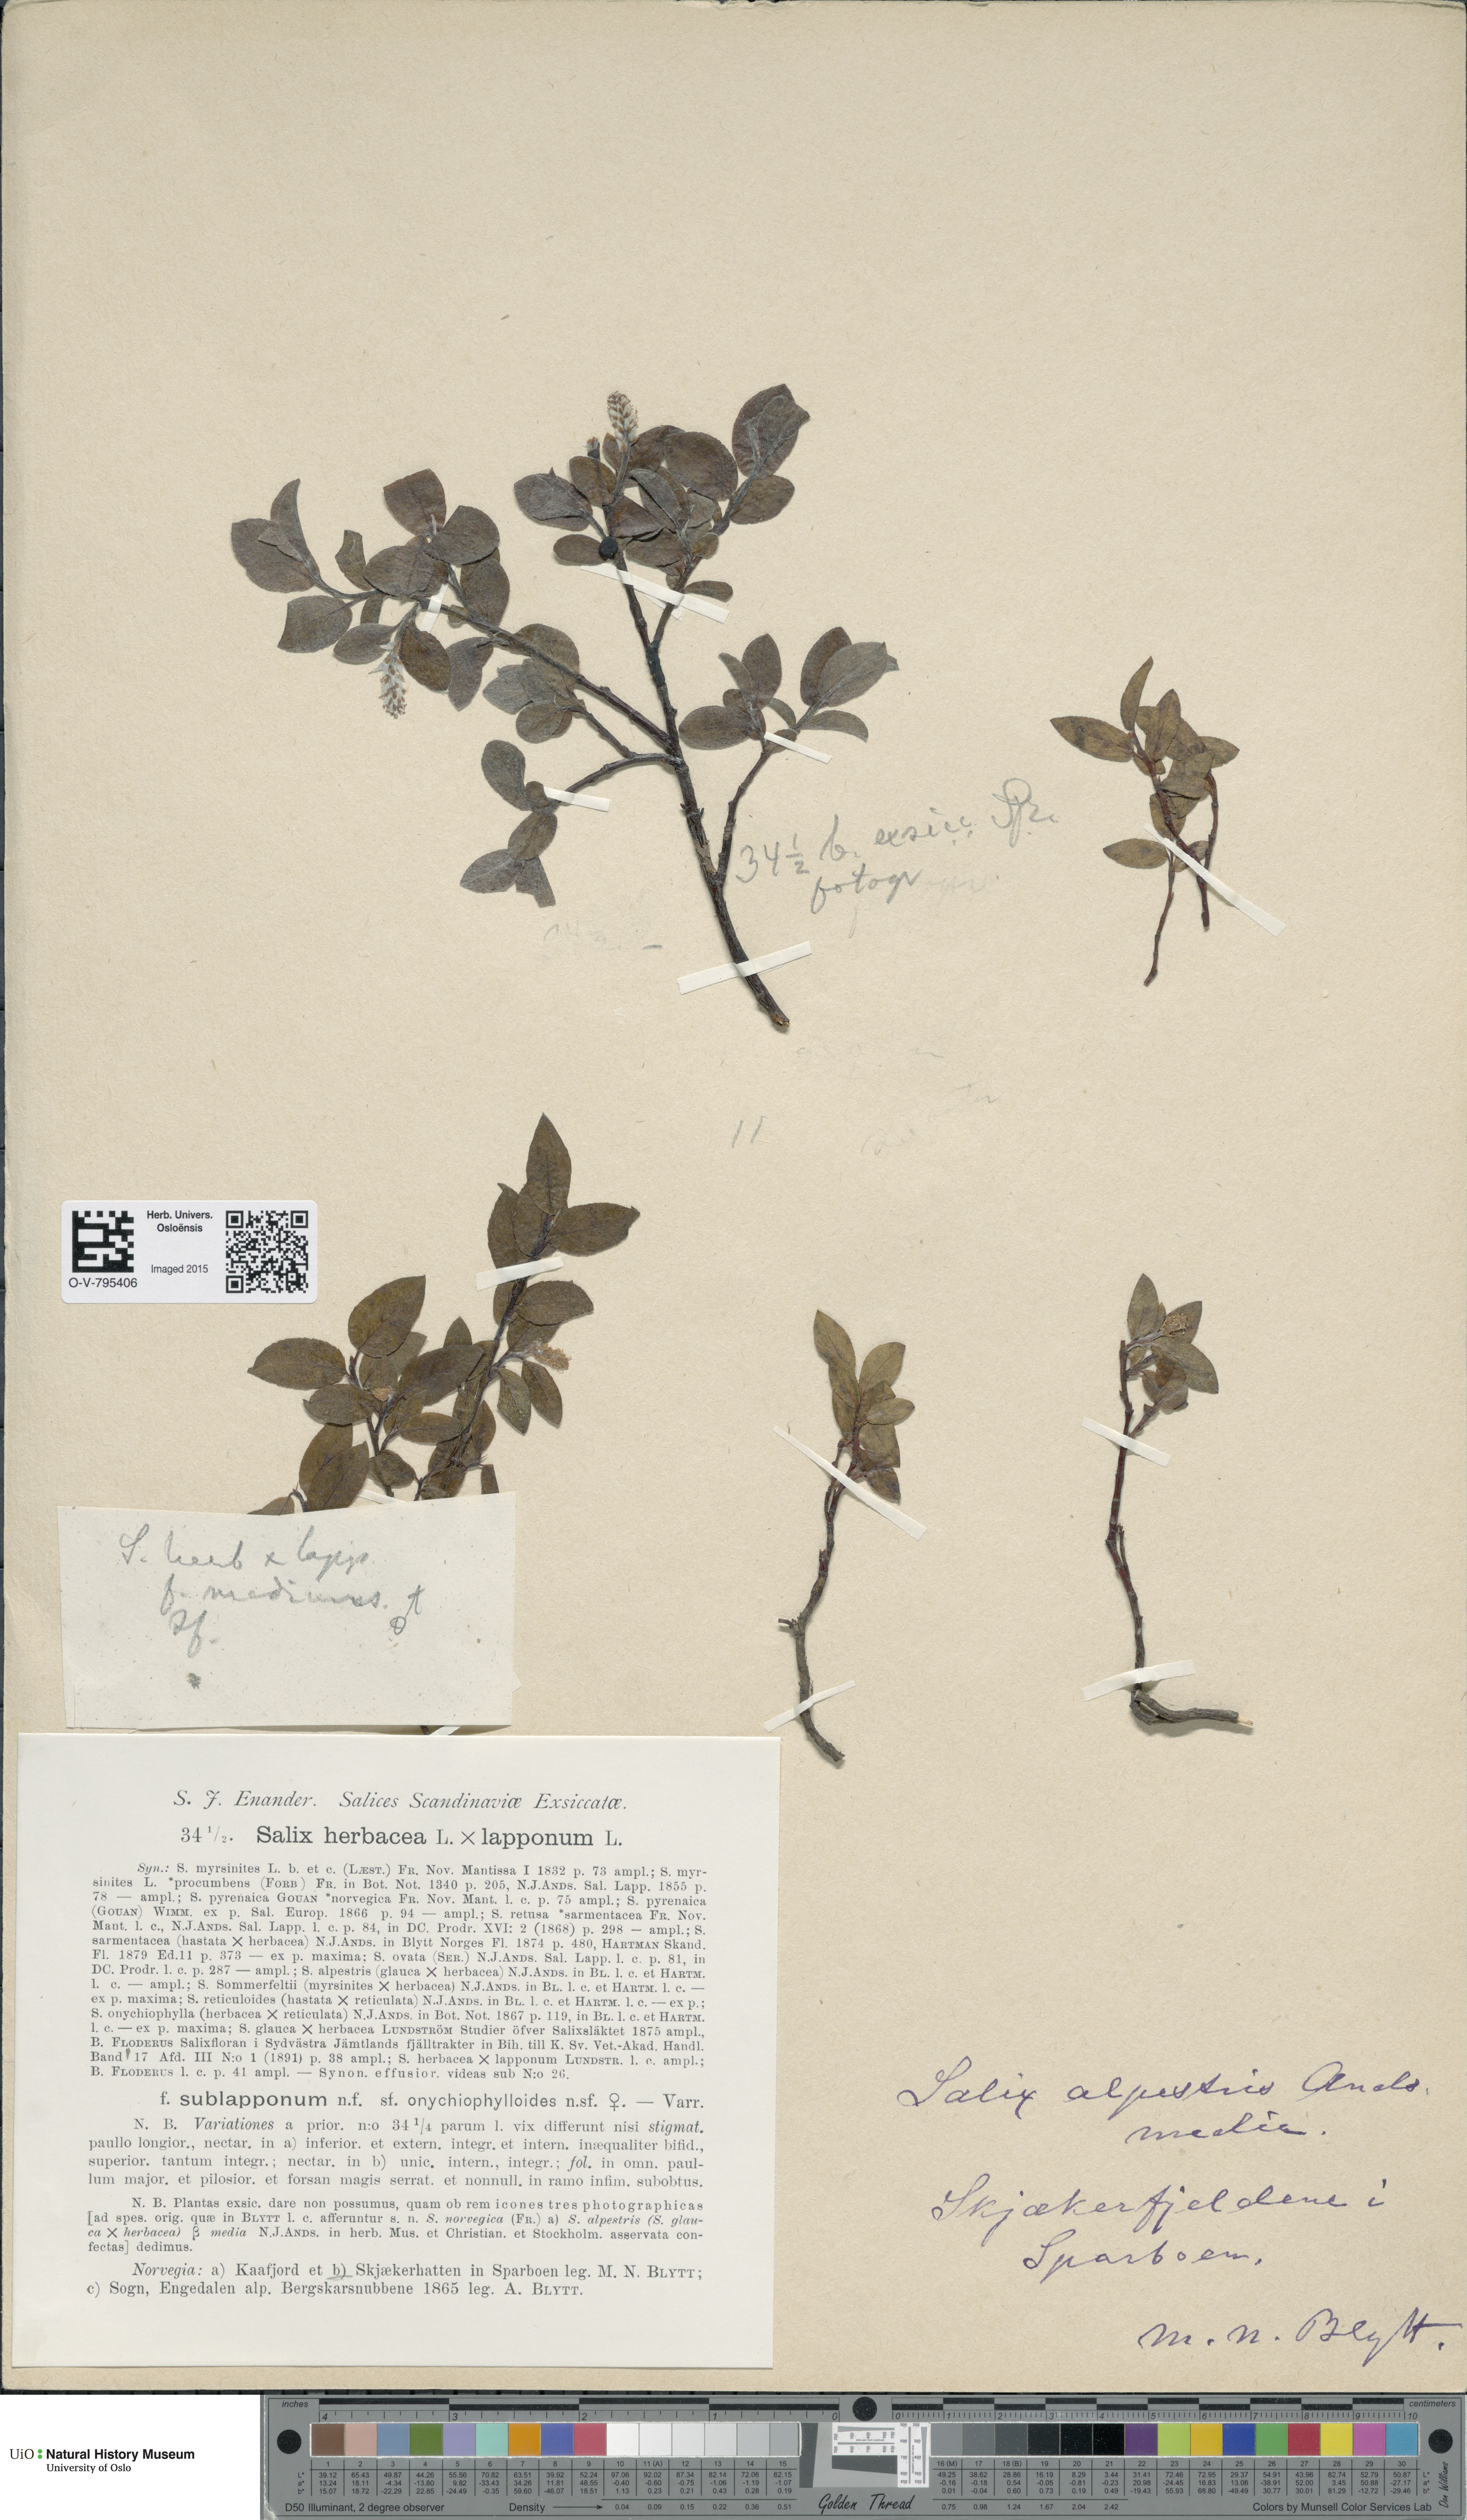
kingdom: Plantae
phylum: Tracheophyta
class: Magnoliopsida
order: Malpighiales
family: Salicaceae
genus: Salix
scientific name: Salix
